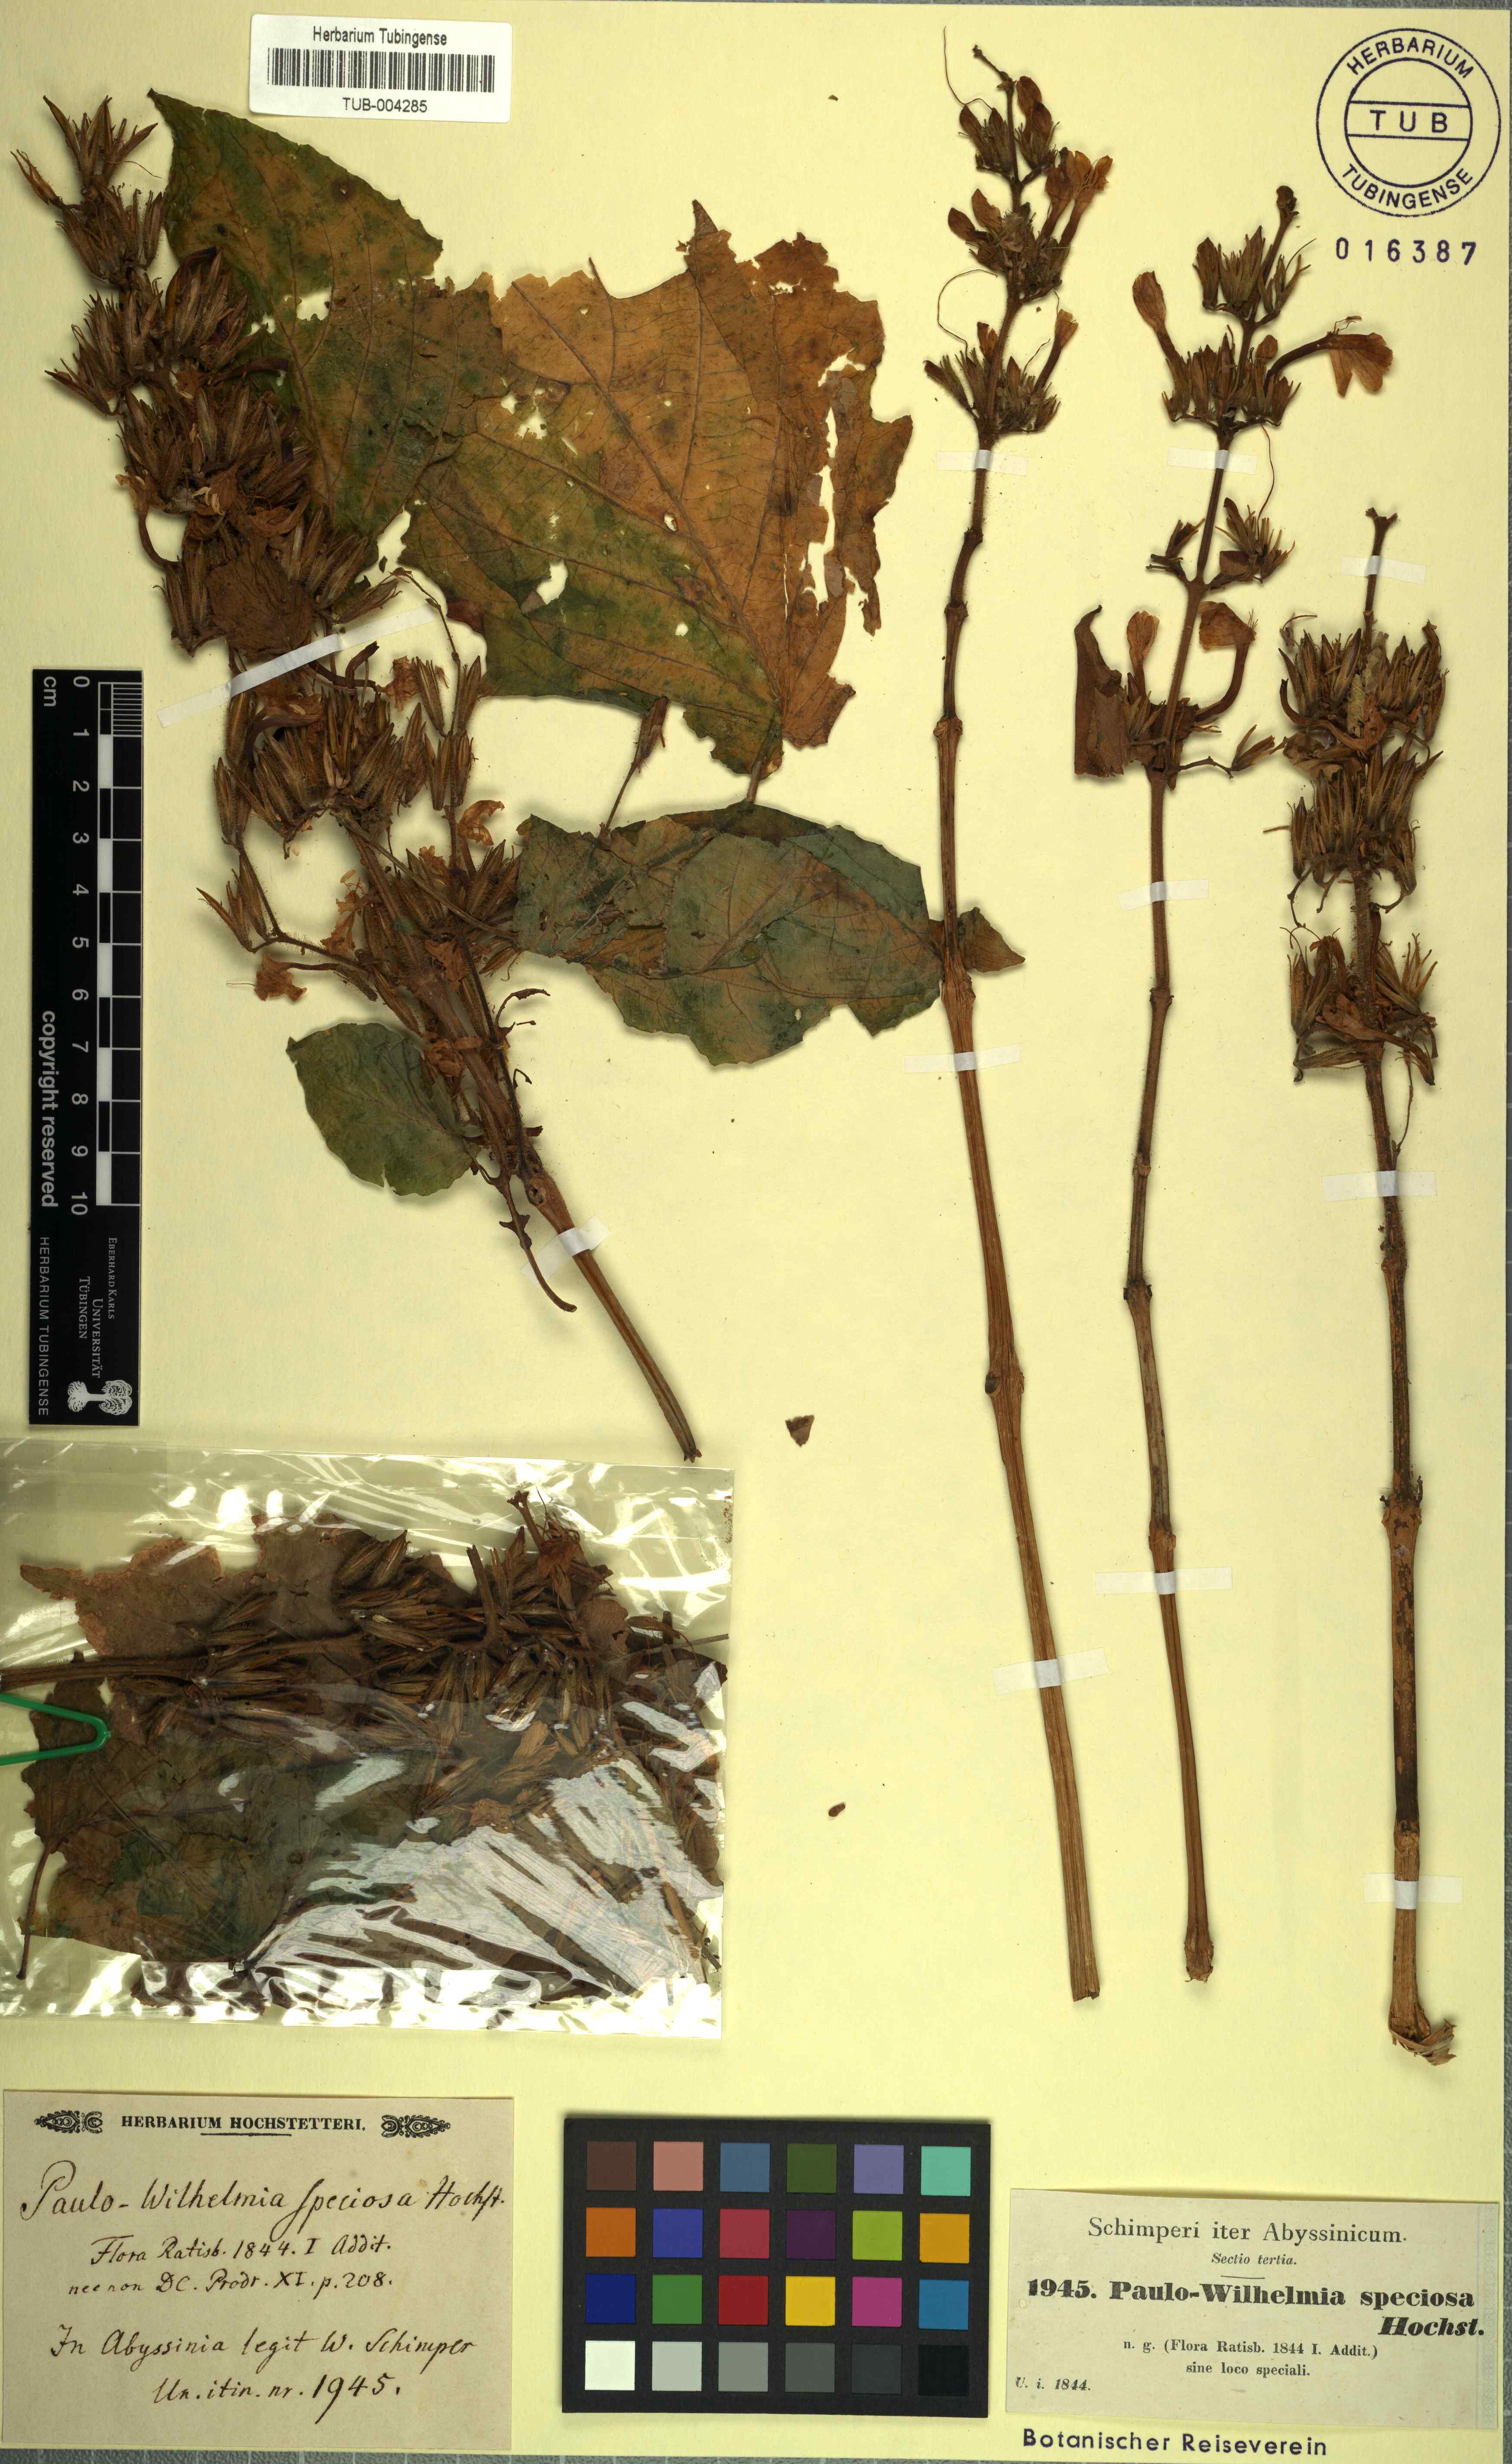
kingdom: Plantae
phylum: Tracheophyta
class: Magnoliopsida
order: Lamiales
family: Acanthaceae
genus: Eremomastax
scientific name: Eremomastax speciosa
